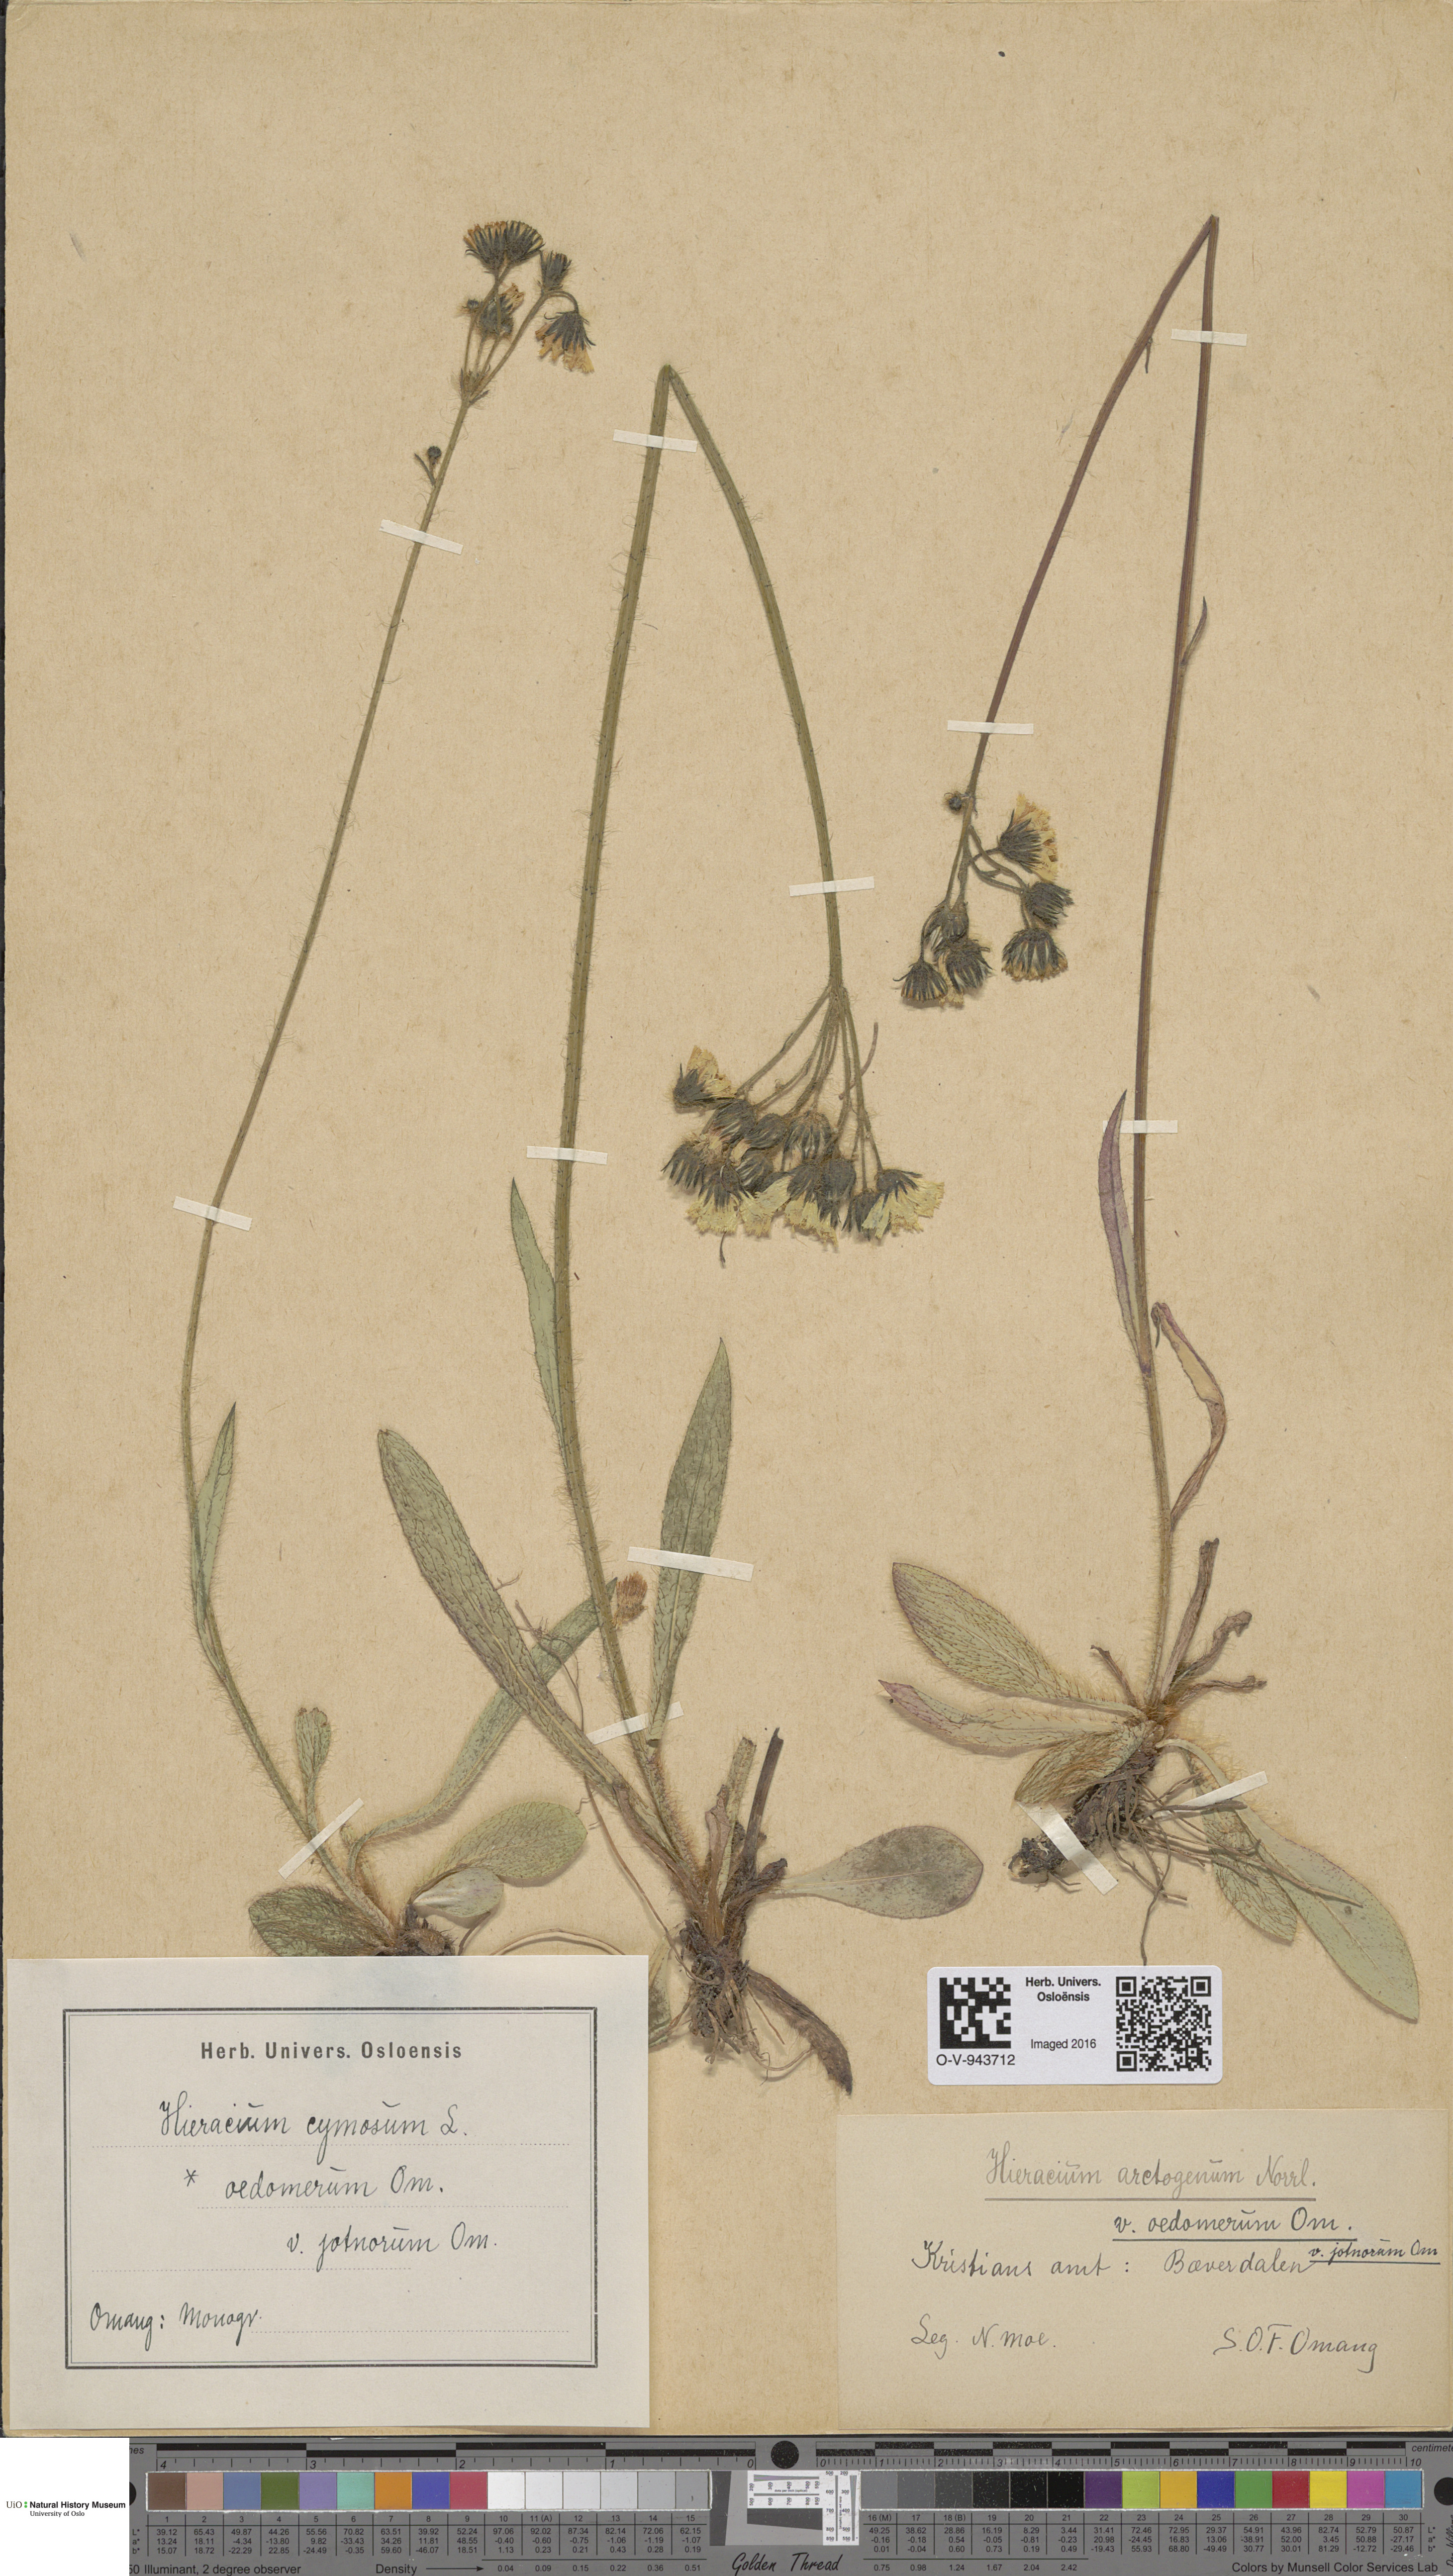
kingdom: Plantae
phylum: Tracheophyta
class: Magnoliopsida
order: Asterales
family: Asteraceae
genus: Pilosella
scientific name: Pilosella cymosa
